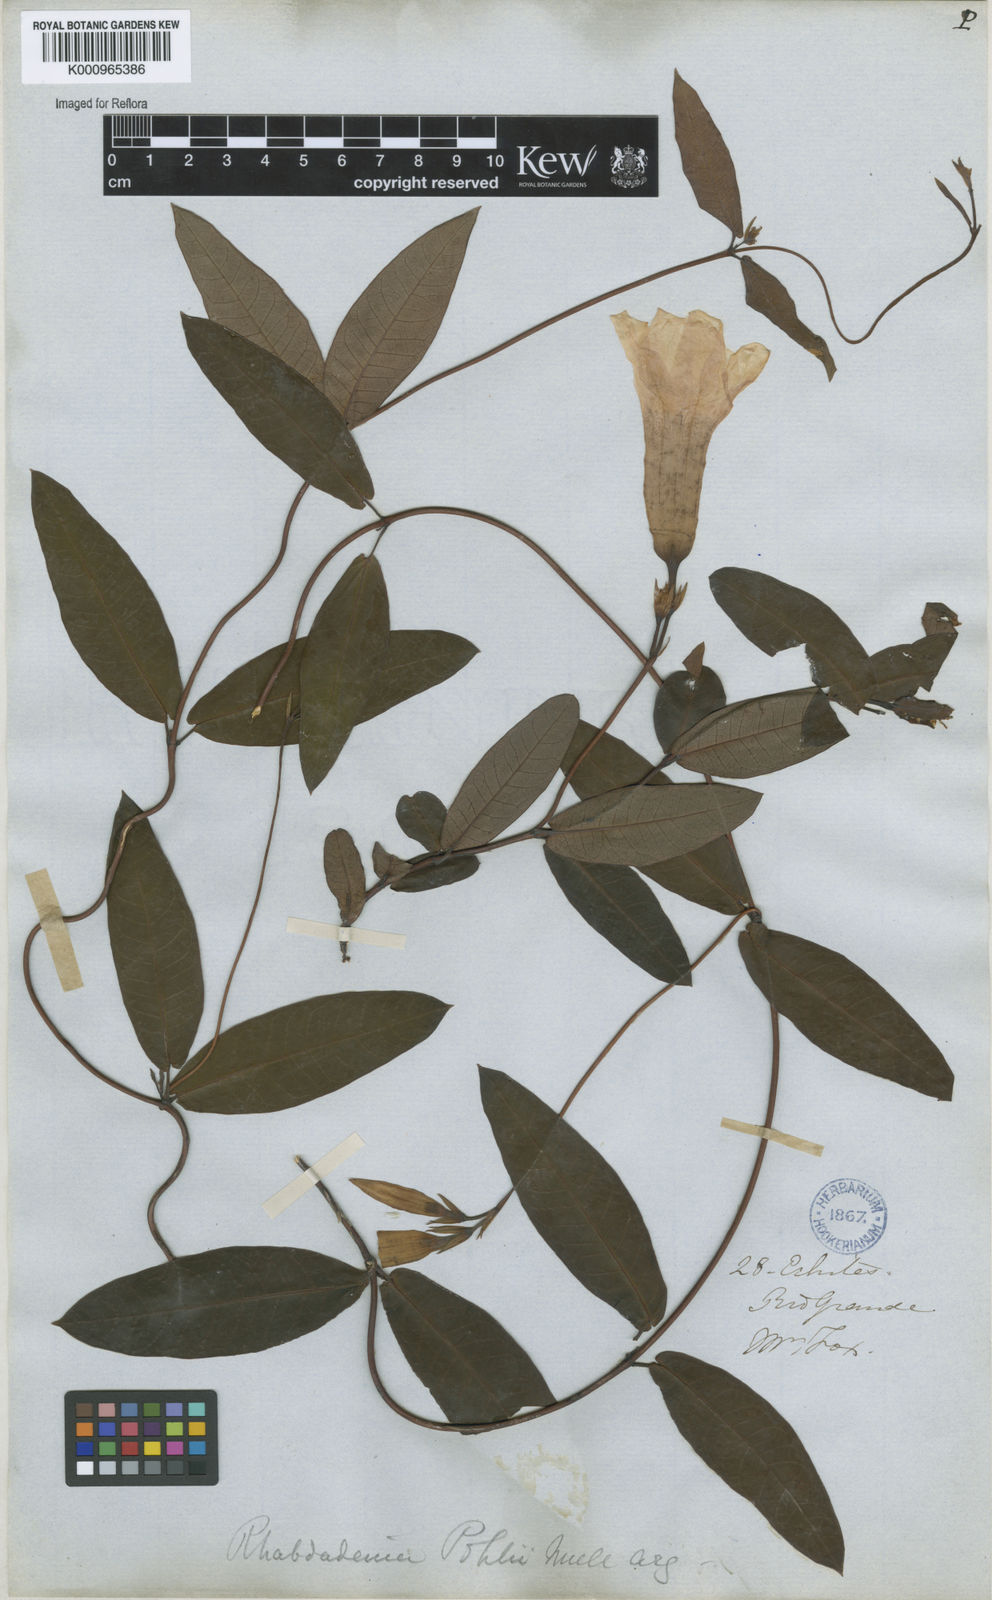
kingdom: Plantae
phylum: Tracheophyta
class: Magnoliopsida
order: Gentianales
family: Apocynaceae
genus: Rhabdadenia
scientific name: Rhabdadenia madida
